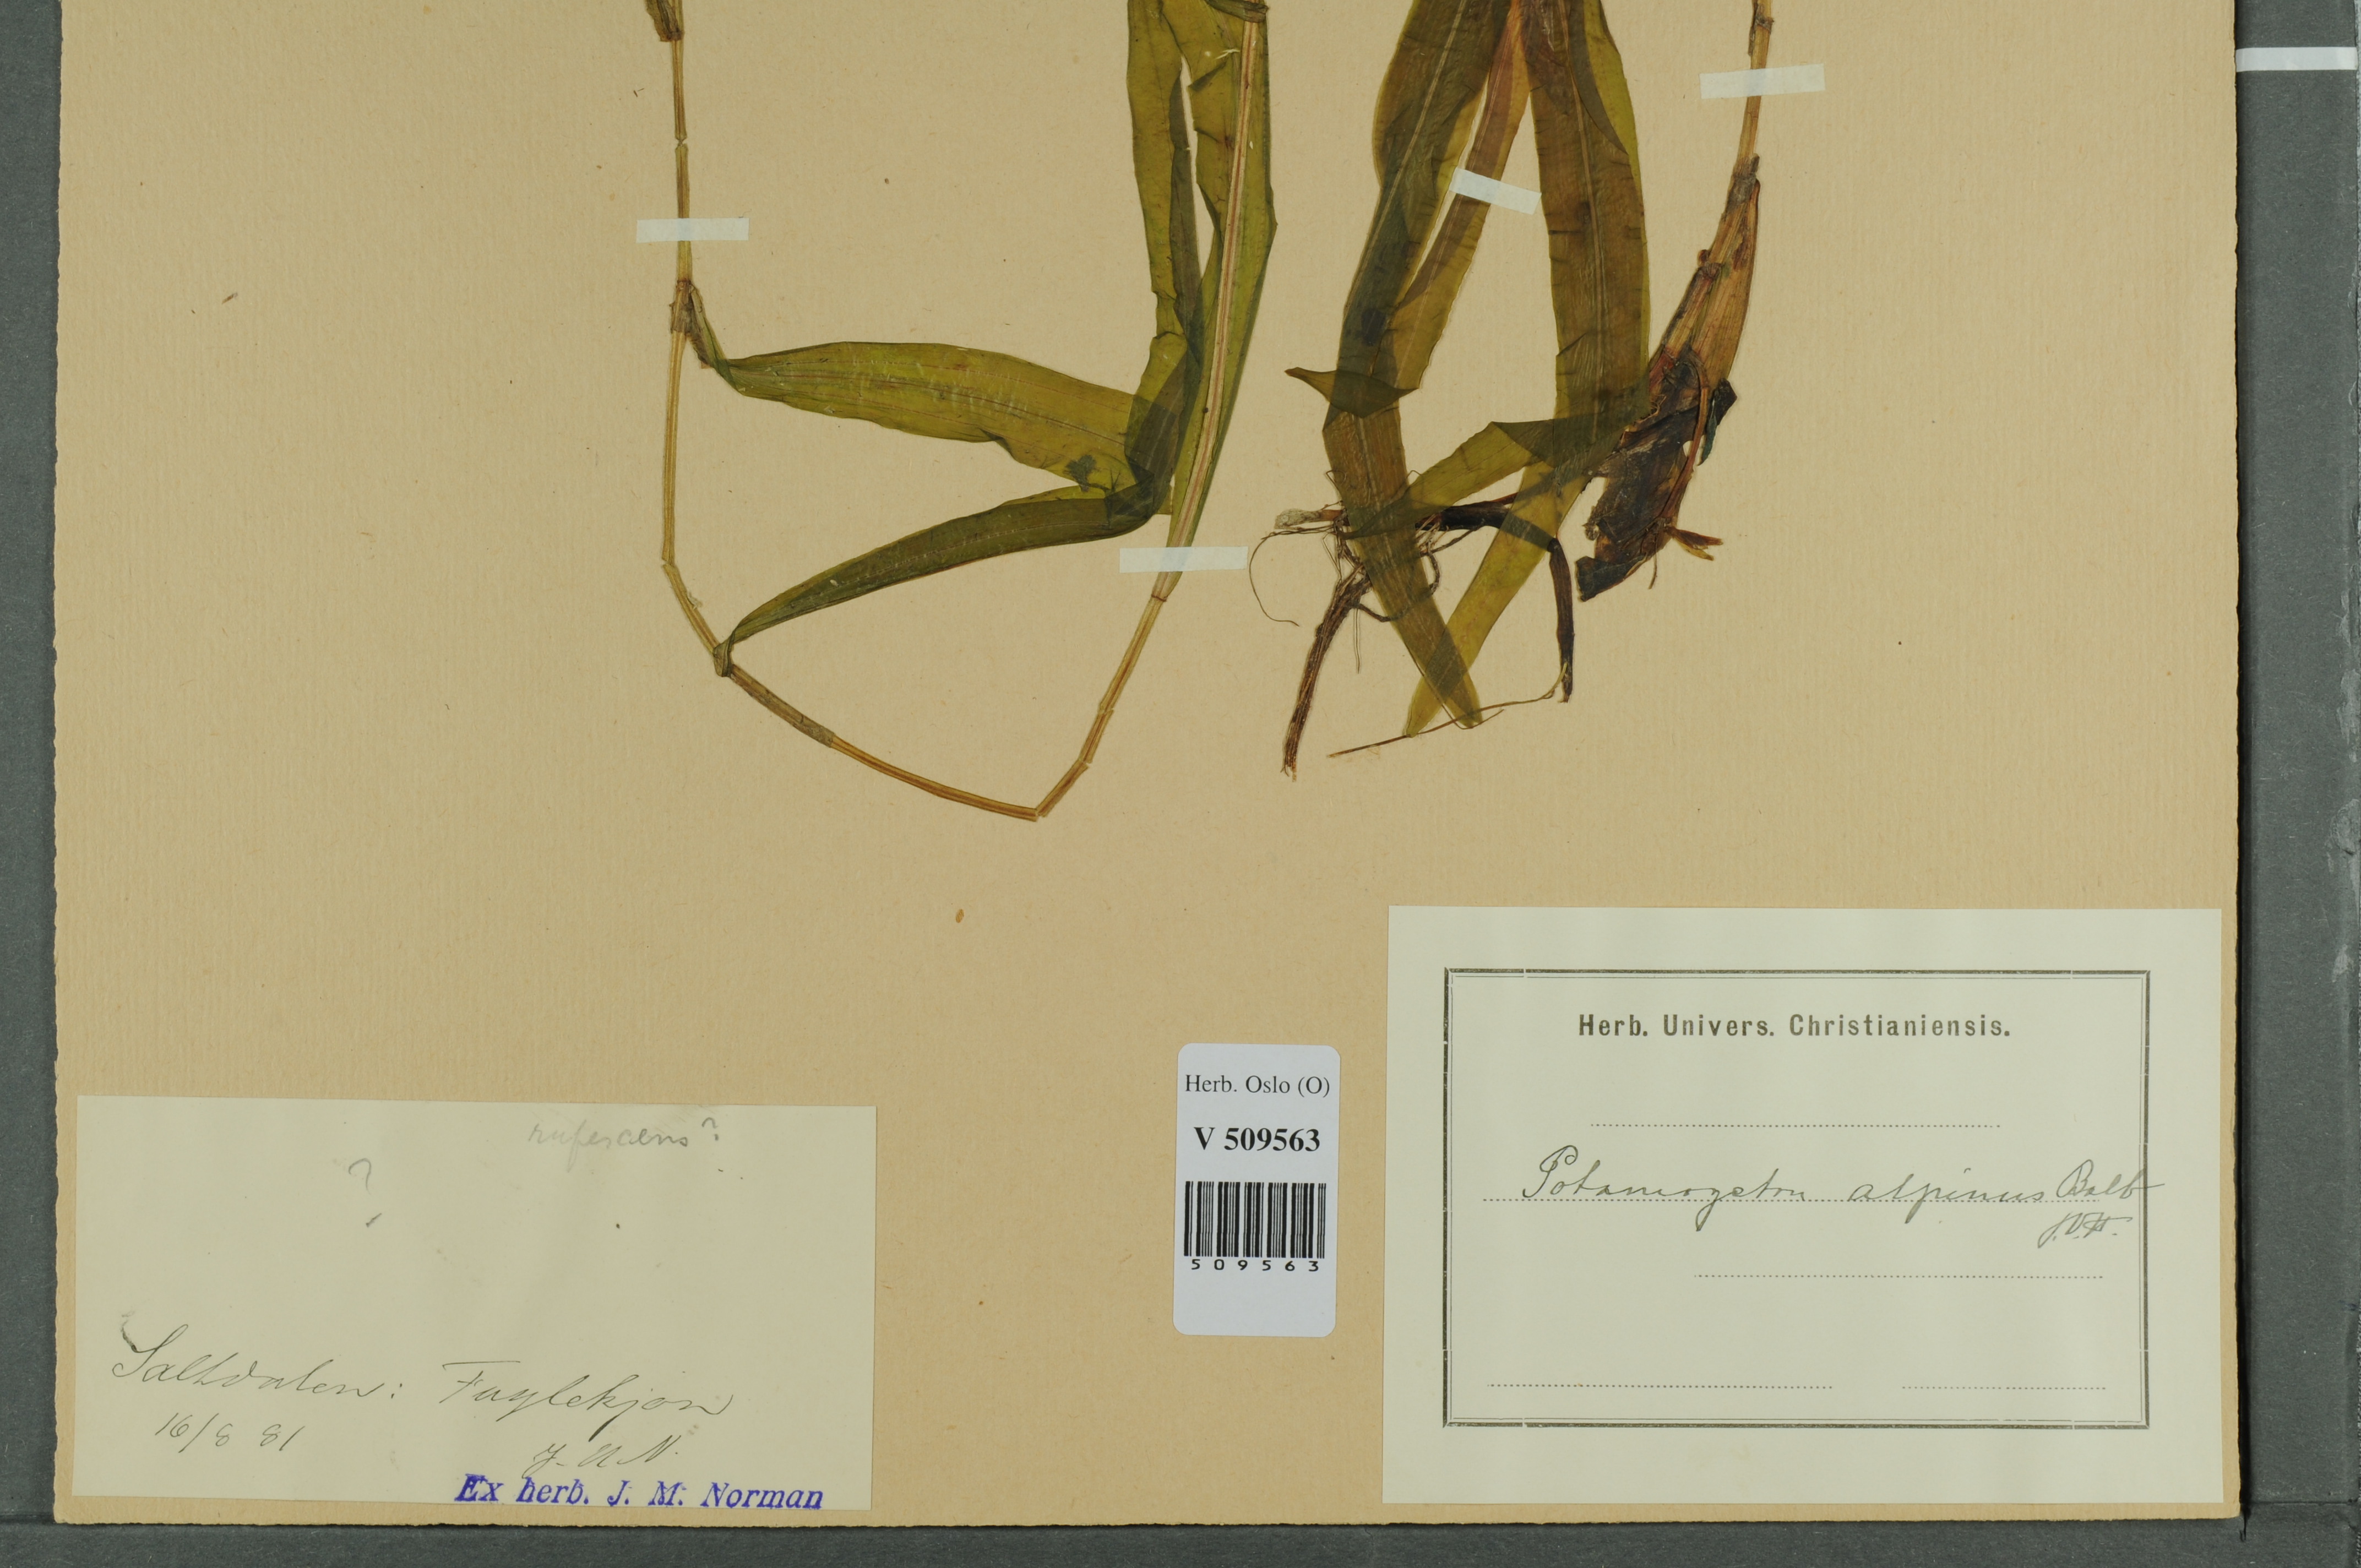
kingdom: Plantae
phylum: Tracheophyta
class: Liliopsida
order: Alismatales
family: Potamogetonaceae
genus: Potamogeton
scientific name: Potamogeton alpinus
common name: Red pondweed
